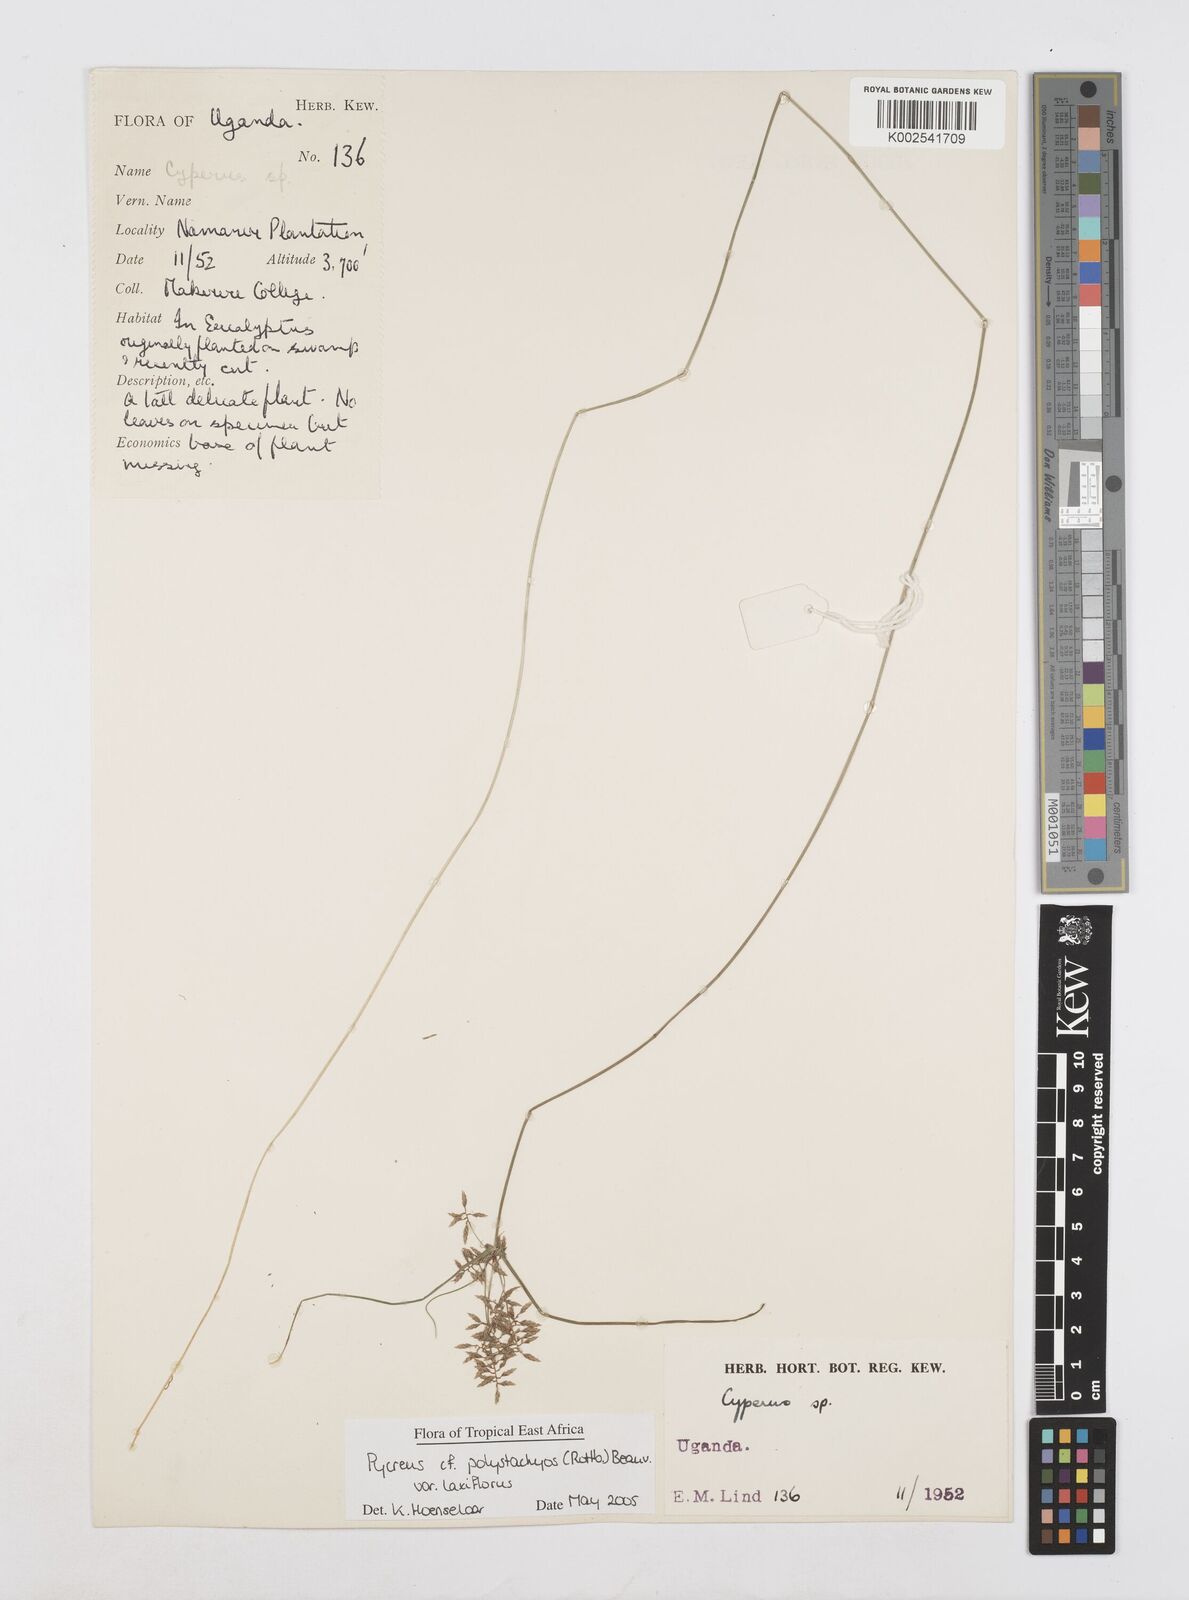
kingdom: Plantae
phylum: Tracheophyta
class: Liliopsida
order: Poales
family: Cyperaceae
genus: Cyperus
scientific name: Cyperus polystachyos
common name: Bunchy flat sedge
